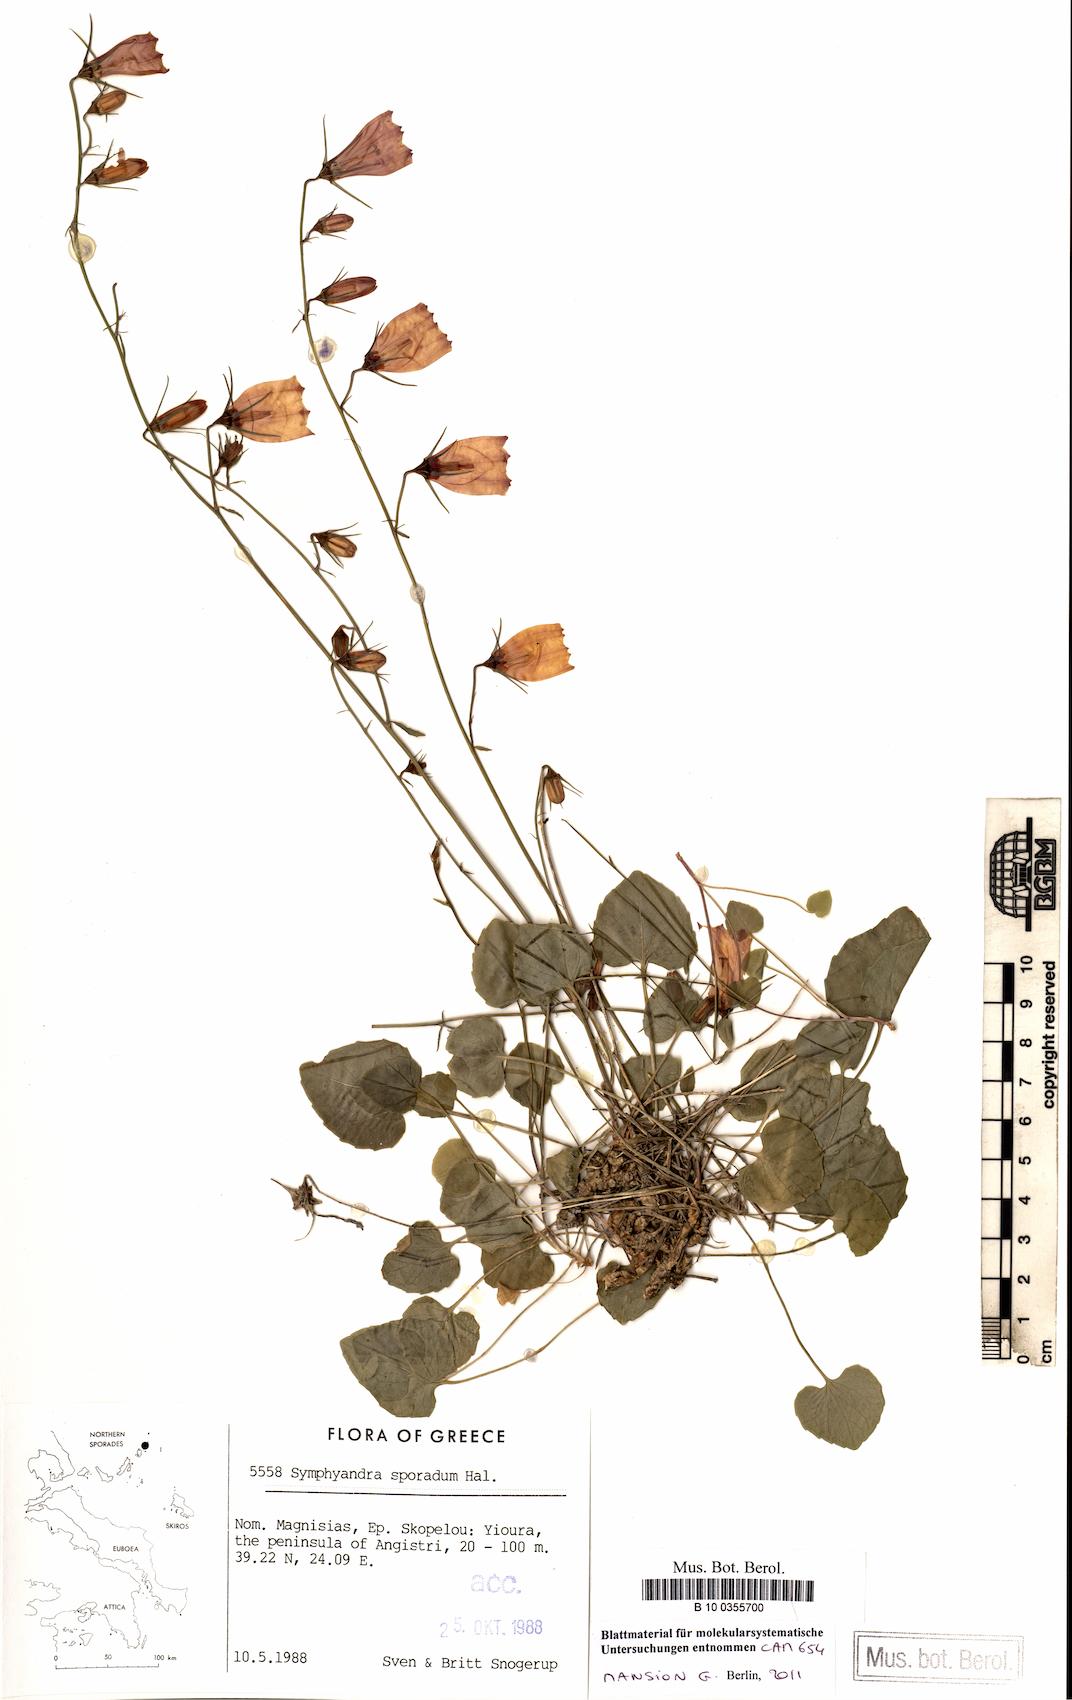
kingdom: Plantae
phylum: Tracheophyta
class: Magnoliopsida
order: Asterales
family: Campanulaceae
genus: Campanula
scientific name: Campanula hagielia
